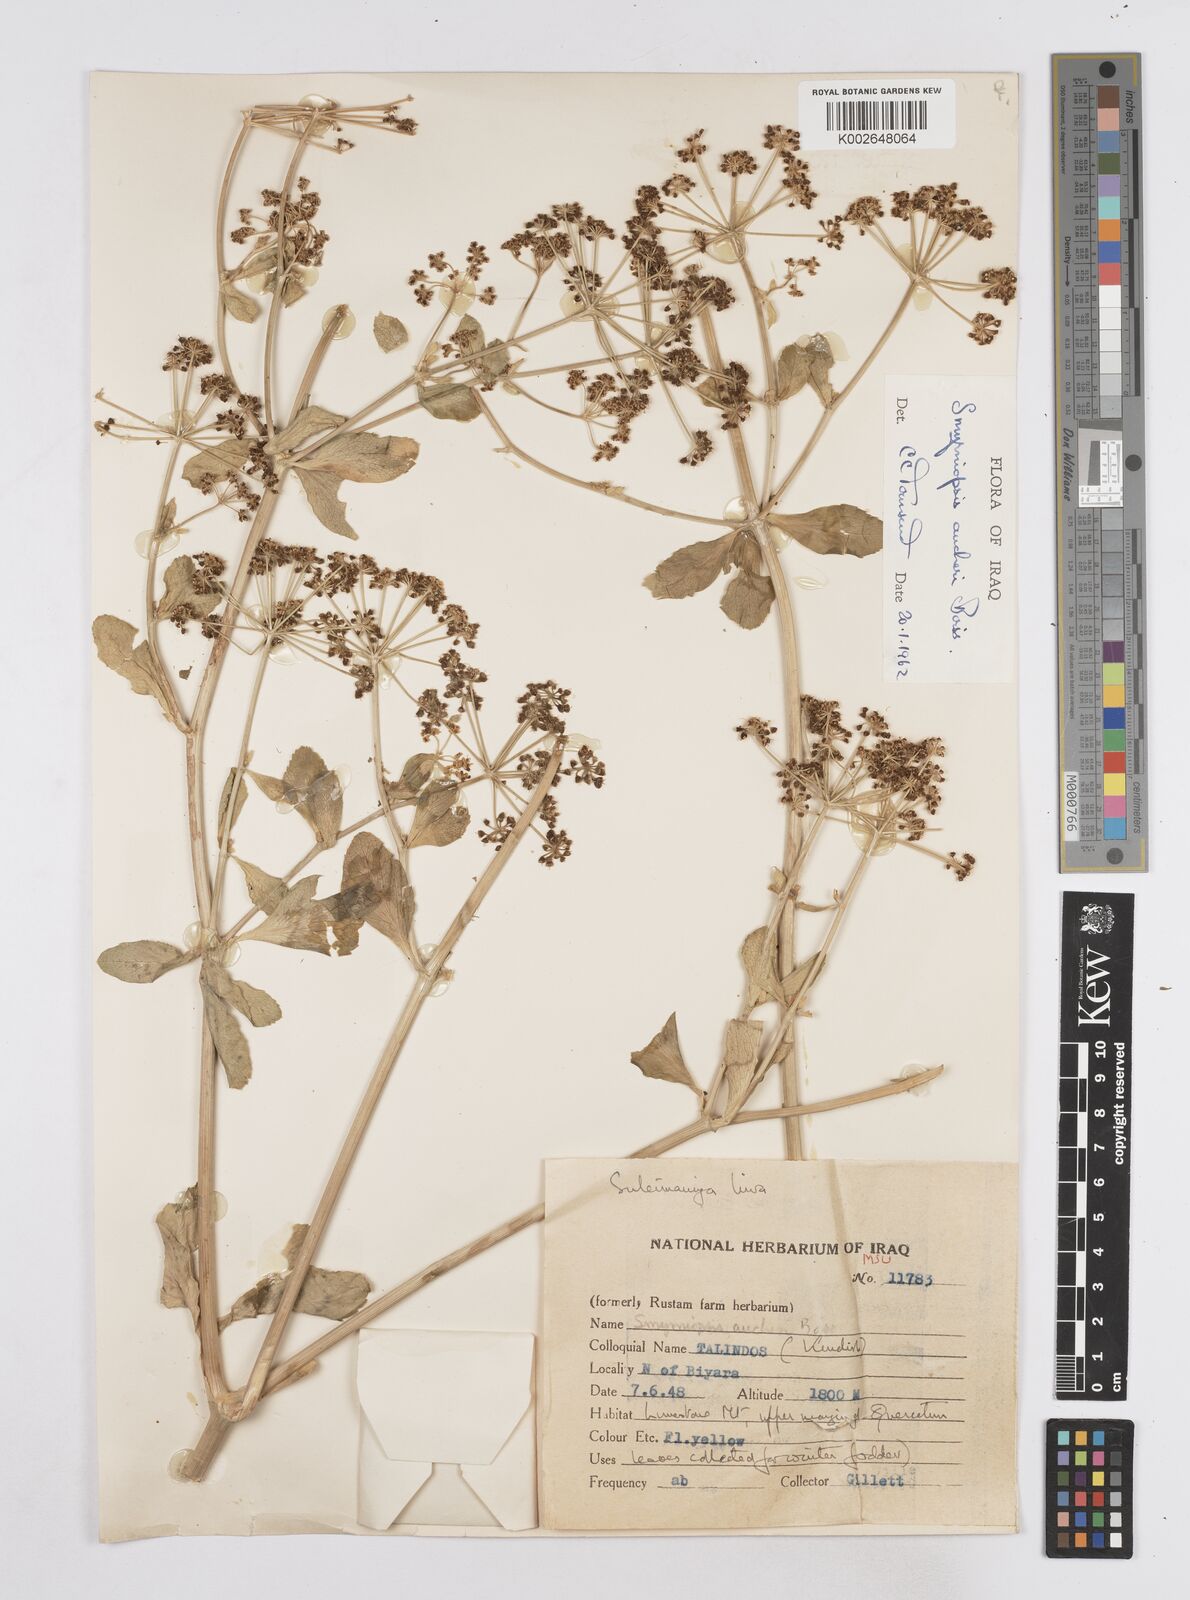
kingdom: Plantae
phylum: Tracheophyta
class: Magnoliopsida
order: Apiales
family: Apiaceae
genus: Smyrniopsis
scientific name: Smyrniopsis aucheri
